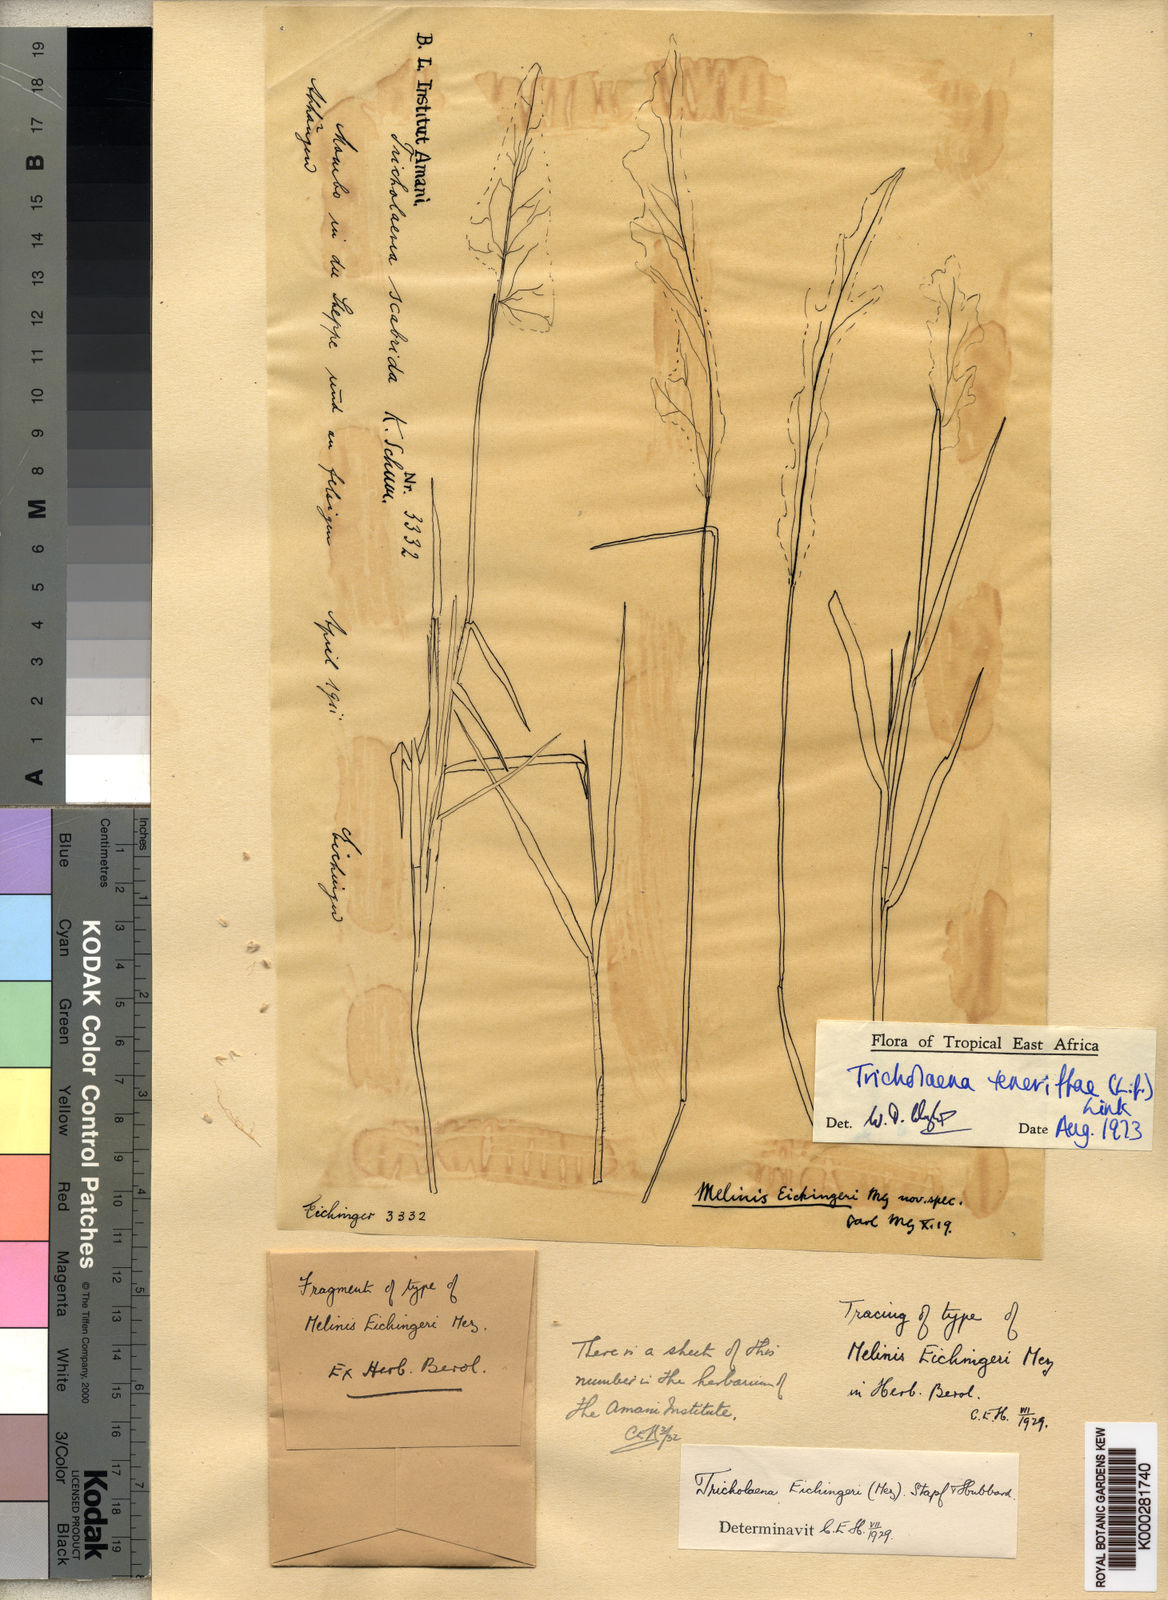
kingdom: Plantae
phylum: Tracheophyta
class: Liliopsida
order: Poales
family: Poaceae
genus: Melinis
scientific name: Melinis scabrida
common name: Millet grass
